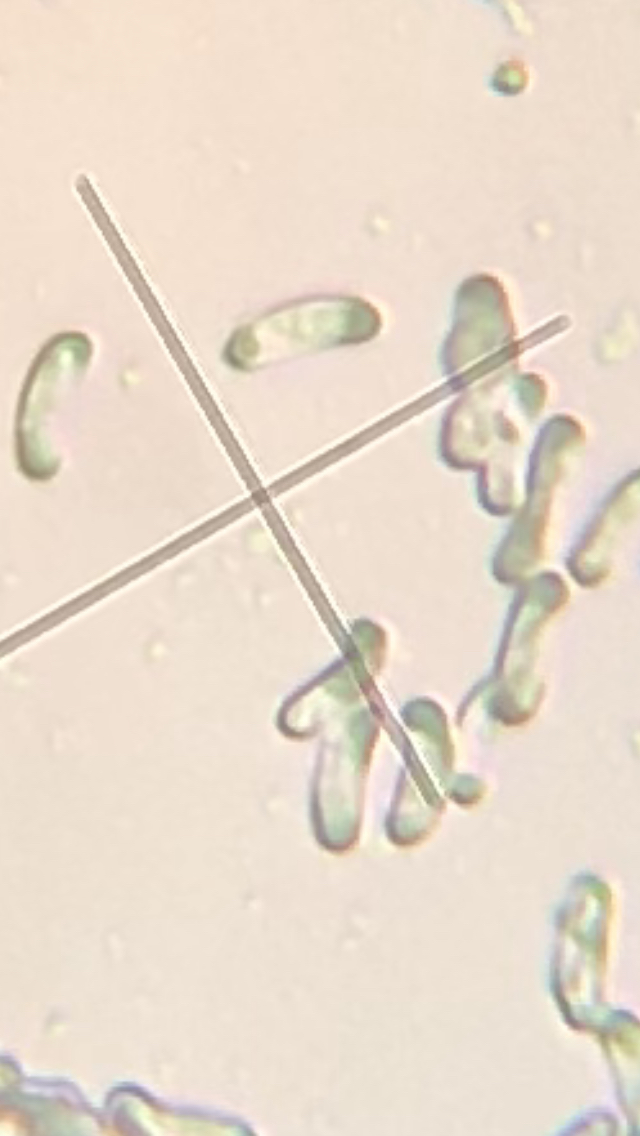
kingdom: Fungi
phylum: Basidiomycota
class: Agaricomycetes
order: Polyporales
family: Polyporaceae
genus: Cyanosporus
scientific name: Cyanosporus alni
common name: blegblå kødporesvamp
